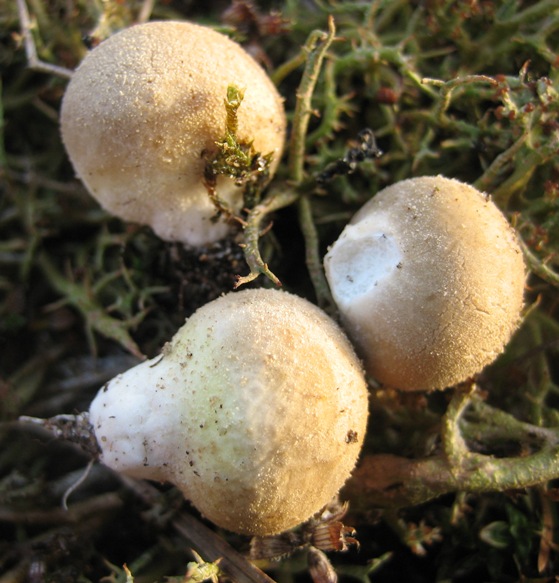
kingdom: Fungi
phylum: Basidiomycota
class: Agaricomycetes
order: Agaricales
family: Lycoperdaceae
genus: Lycoperdon
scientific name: Lycoperdon lividum
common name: mark-støvbold
